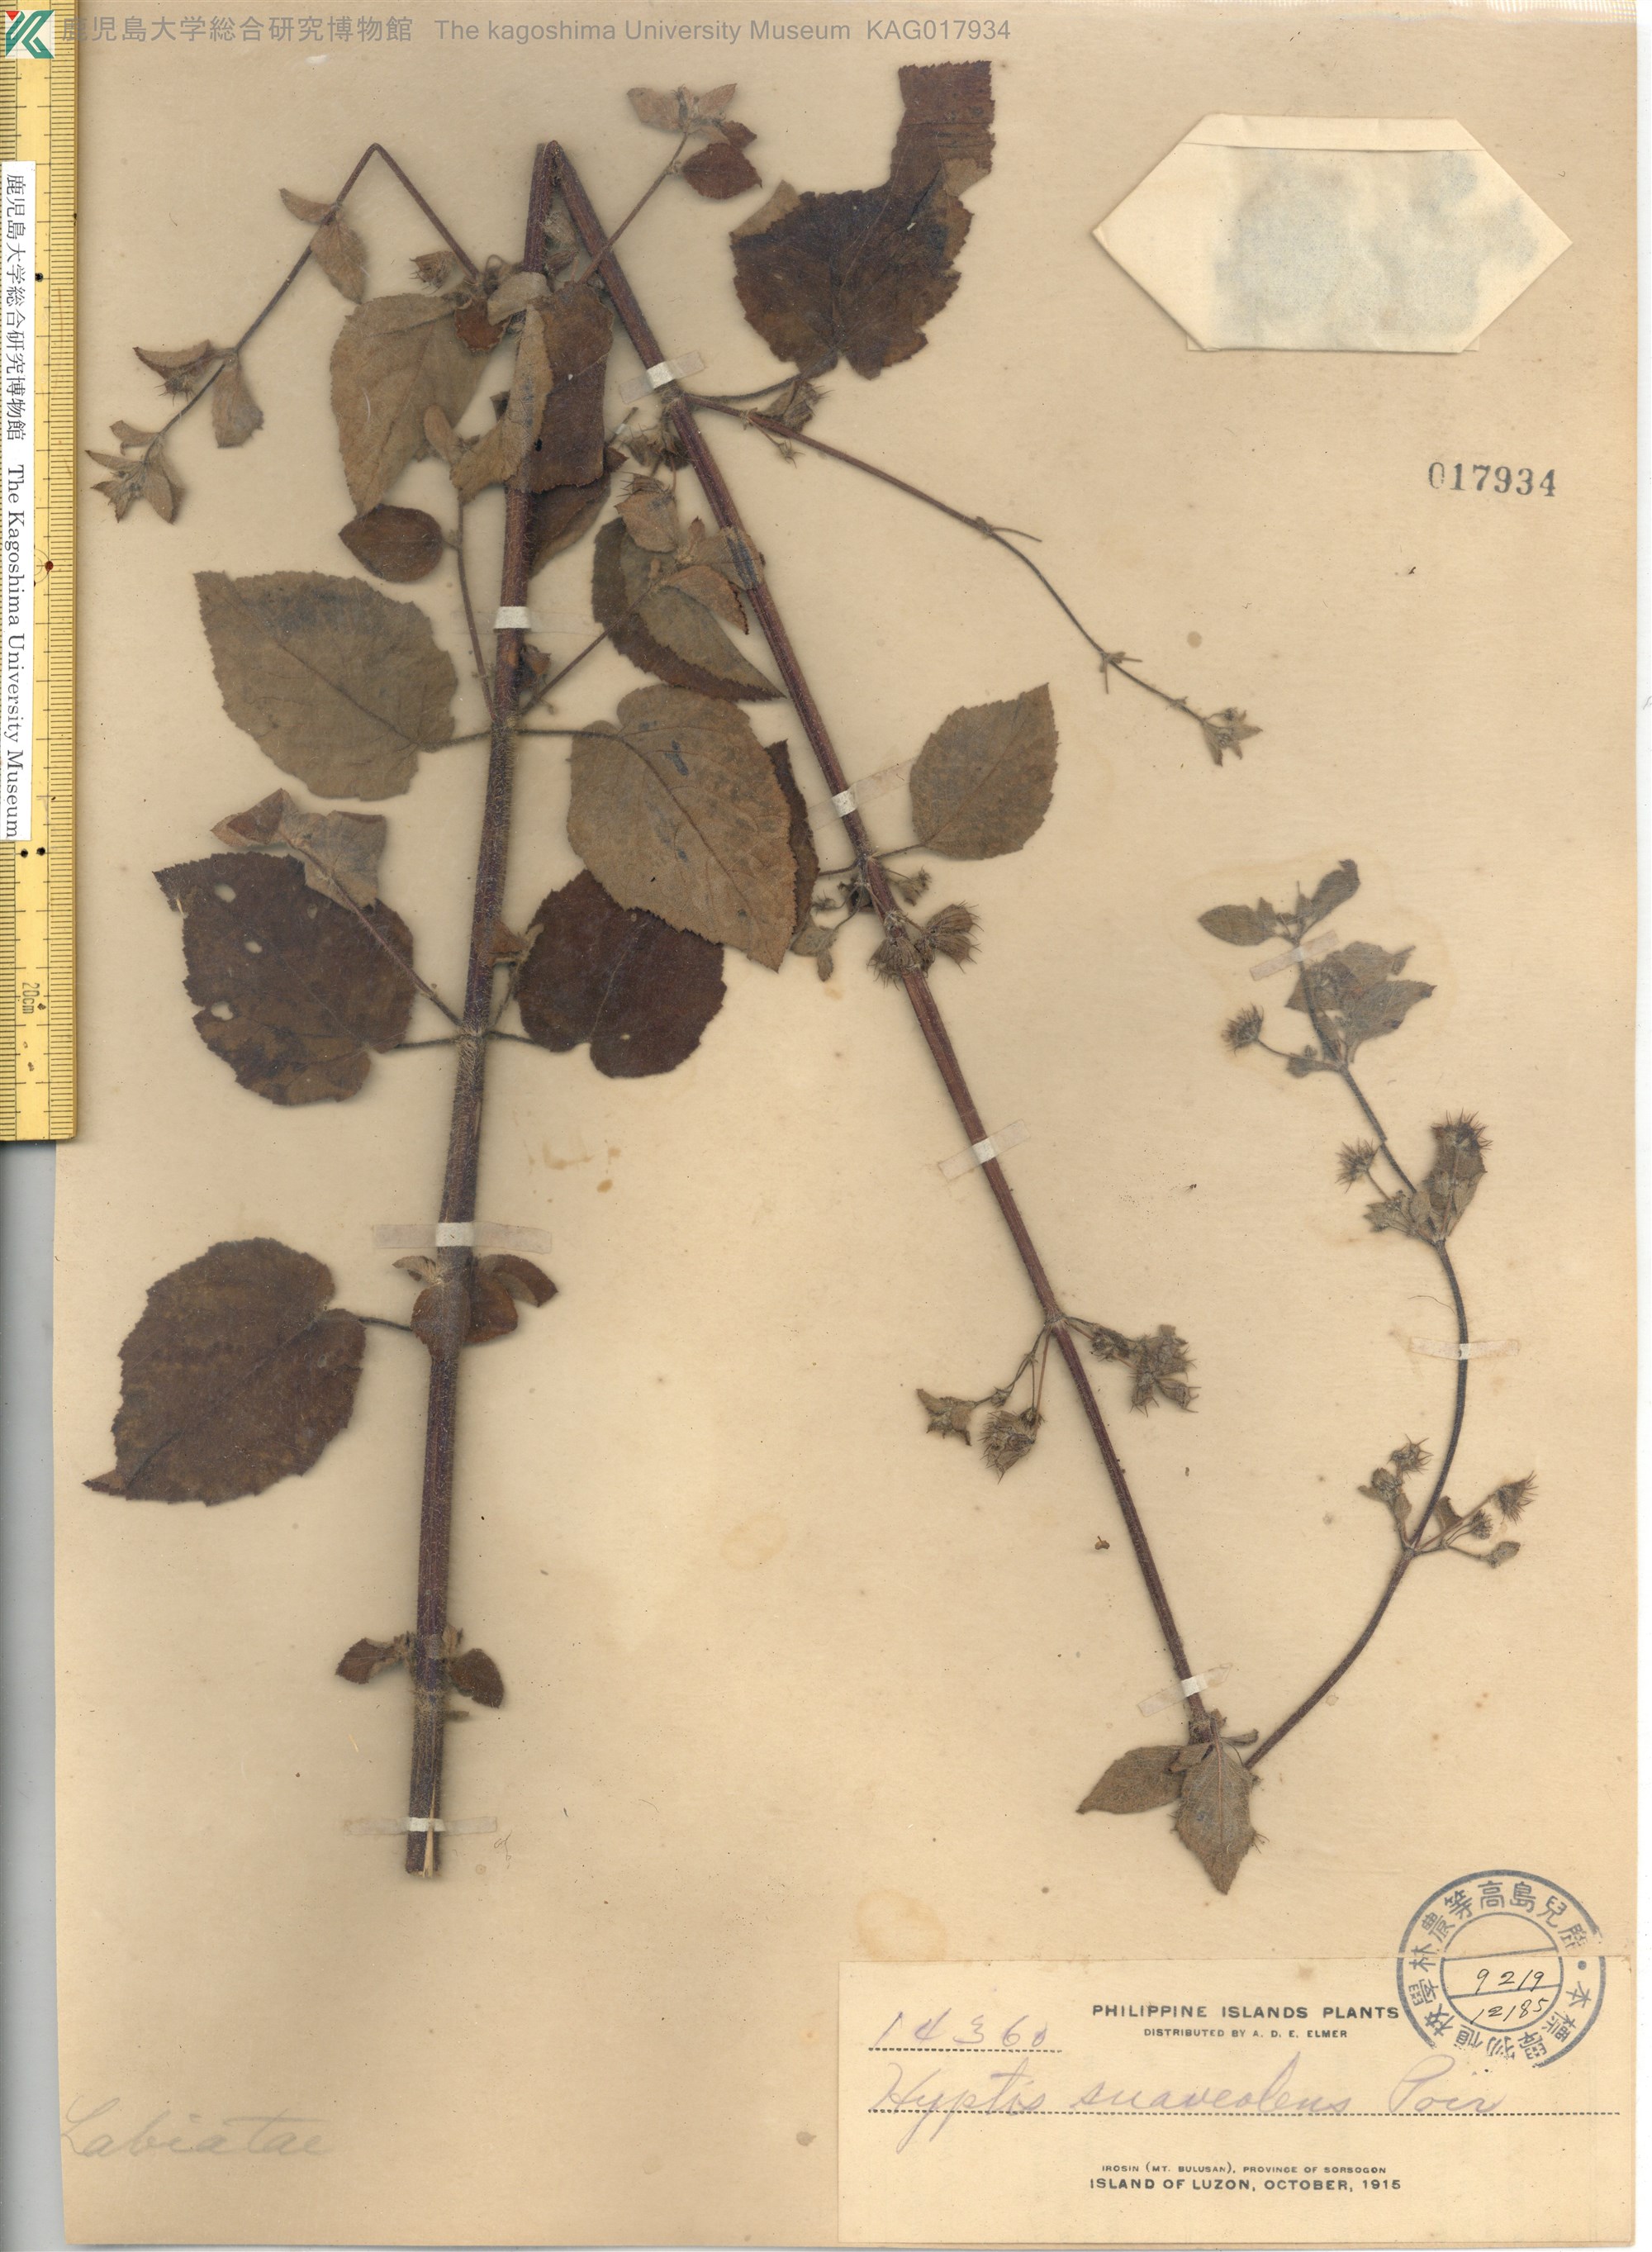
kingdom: Plantae
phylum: Tracheophyta
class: Magnoliopsida
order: Lamiales
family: Lamiaceae
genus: Mesosphaerum
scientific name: Mesosphaerum suaveolens
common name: Pignut
